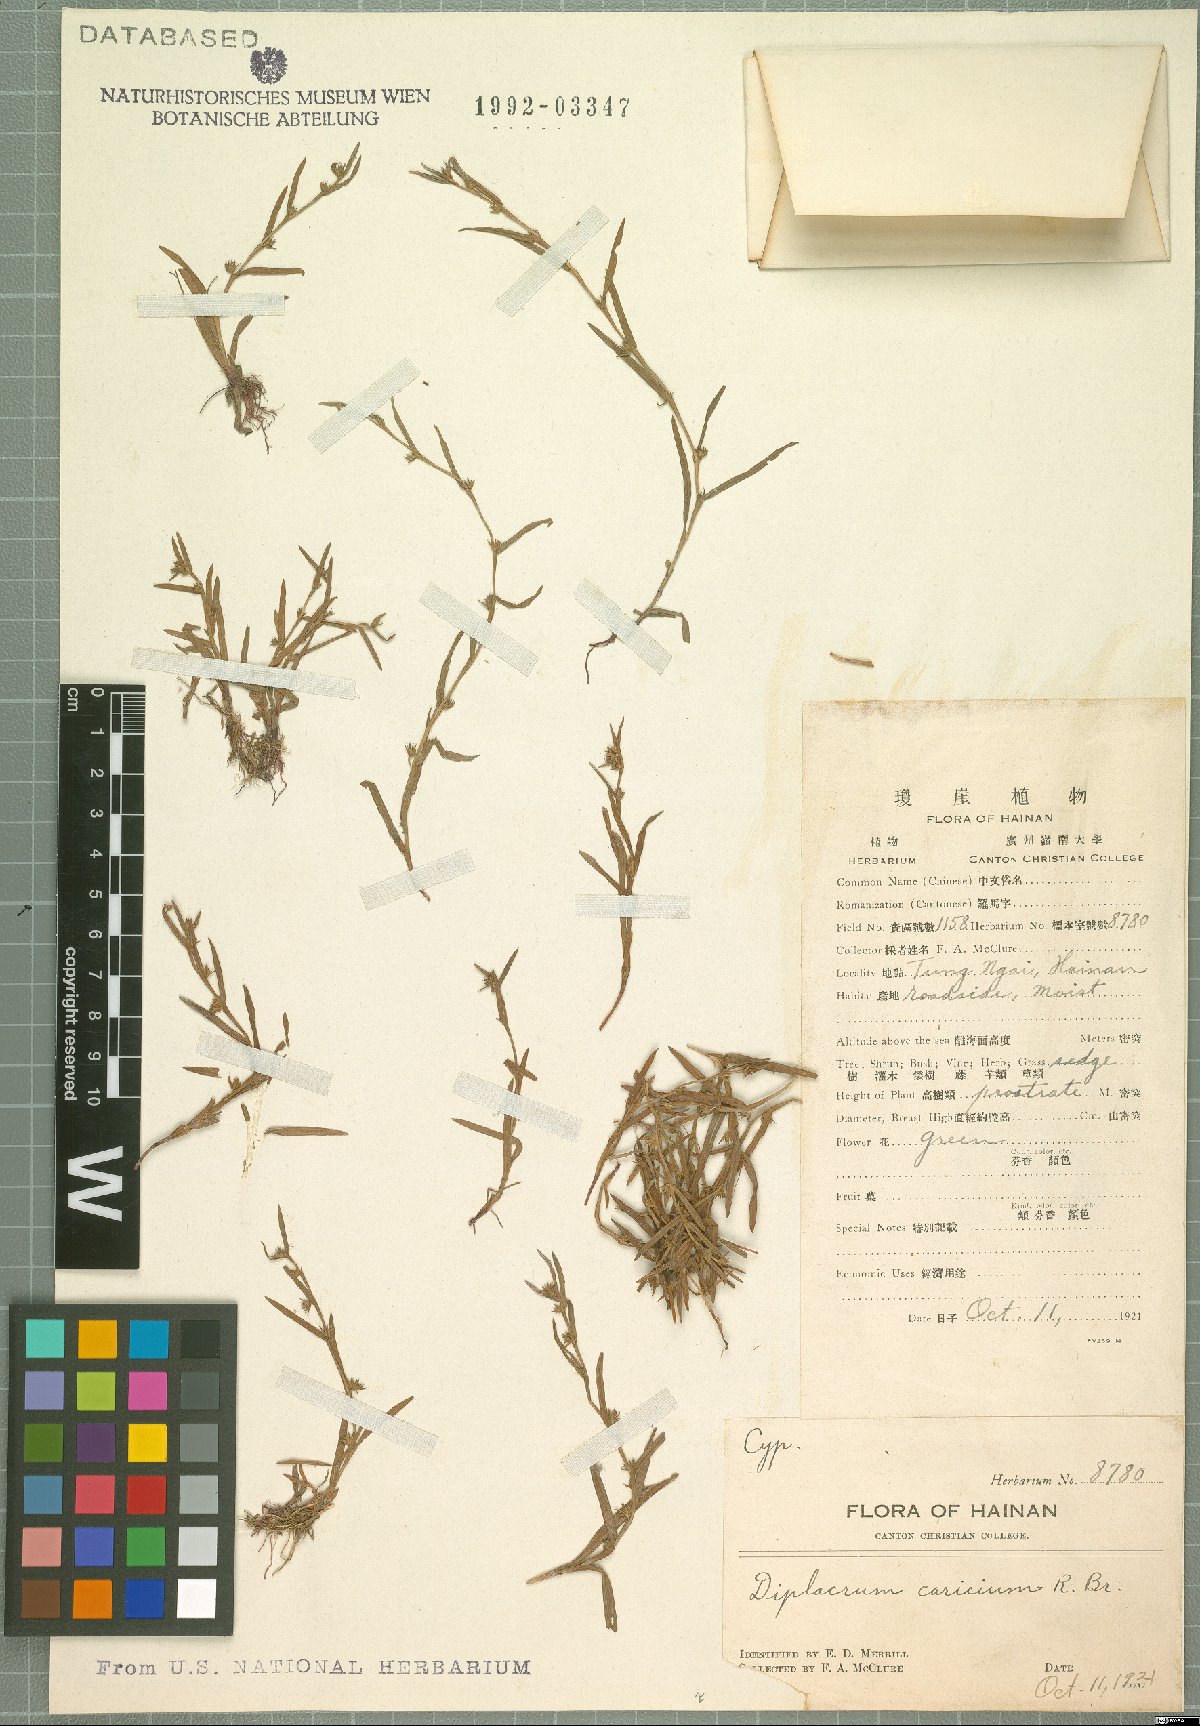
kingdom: Plantae
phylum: Tracheophyta
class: Liliopsida
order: Poales
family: Cyperaceae
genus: Diplacrum
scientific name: Diplacrum caricinum
